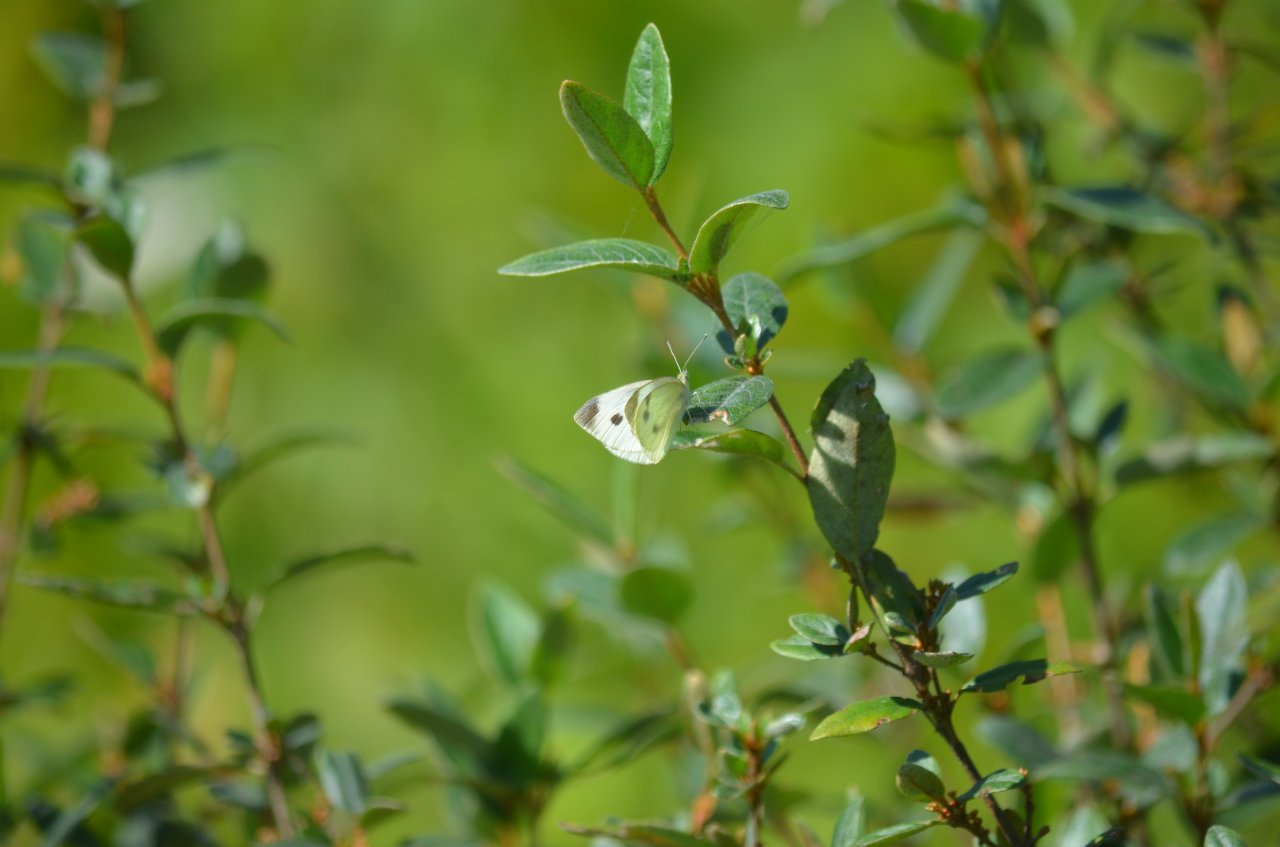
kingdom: Animalia
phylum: Arthropoda
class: Insecta
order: Lepidoptera
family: Pieridae
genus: Pieris
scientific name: Pieris rapae
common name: Cabbage White
